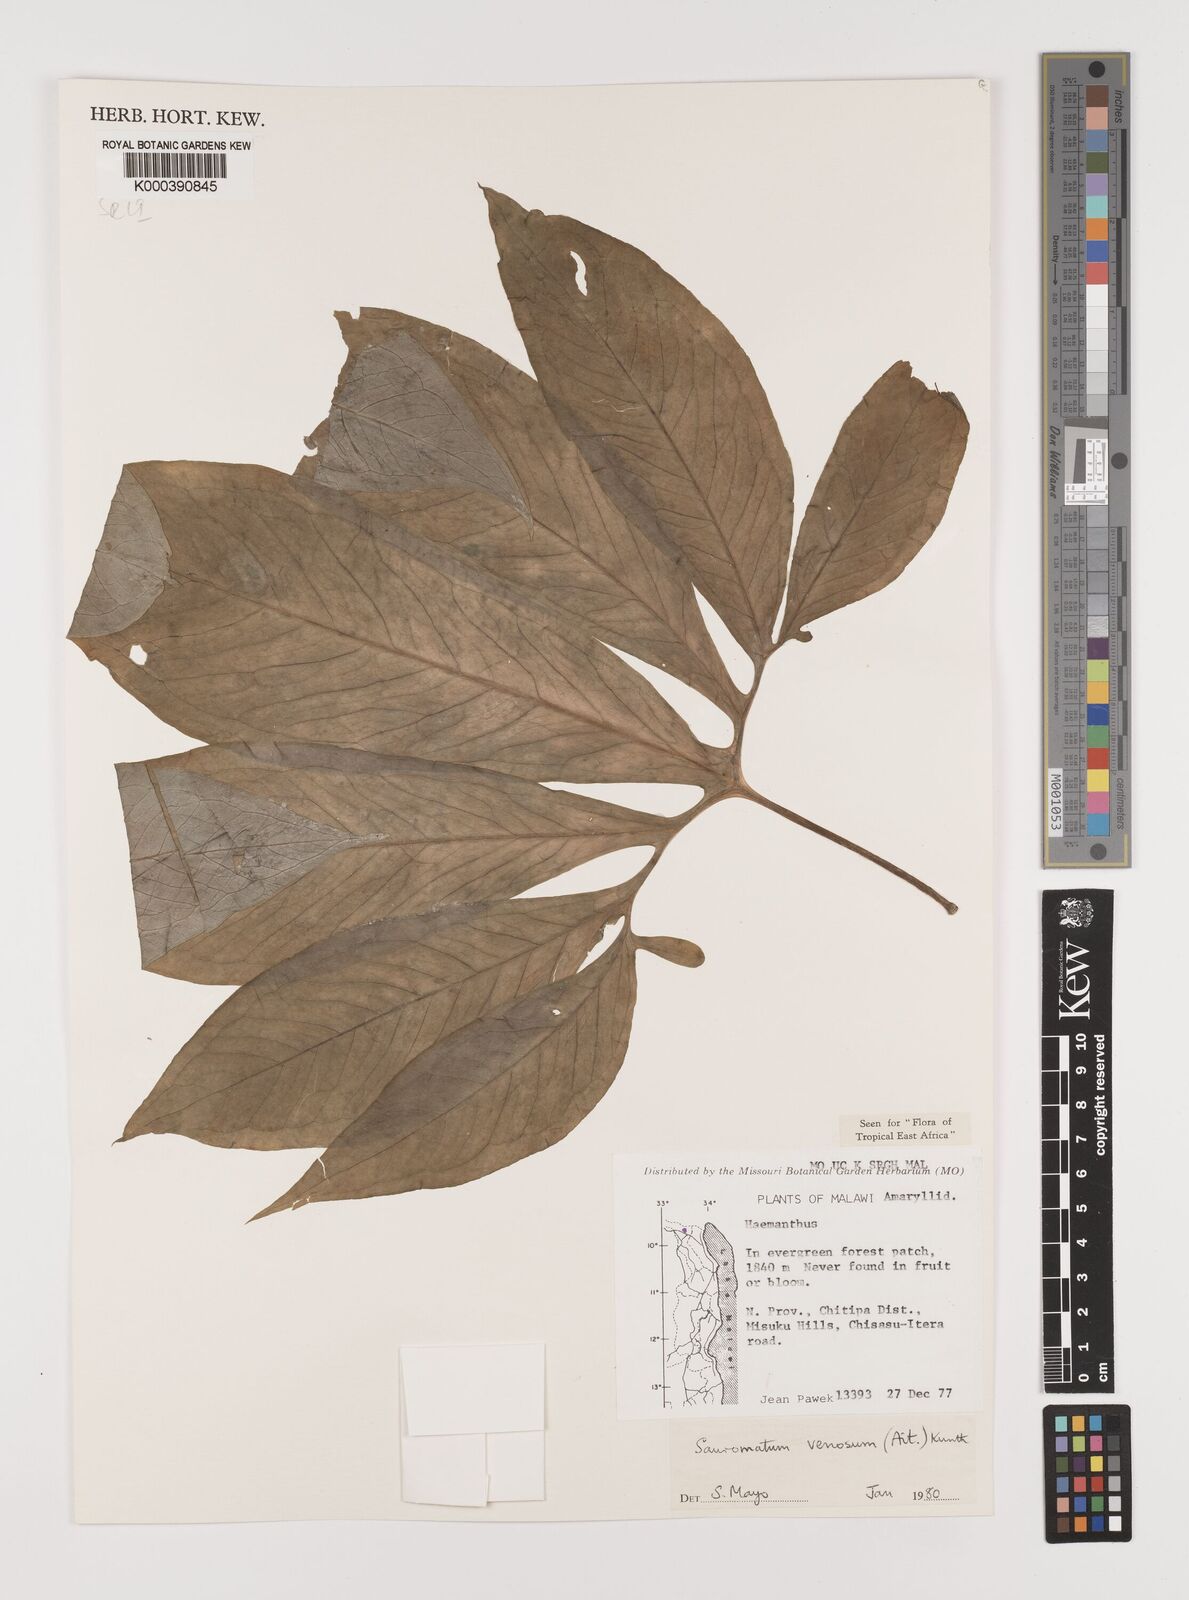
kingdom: Plantae
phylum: Tracheophyta
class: Liliopsida
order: Alismatales
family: Araceae
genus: Sauromatum
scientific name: Sauromatum venosum
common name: Voodoo lily
